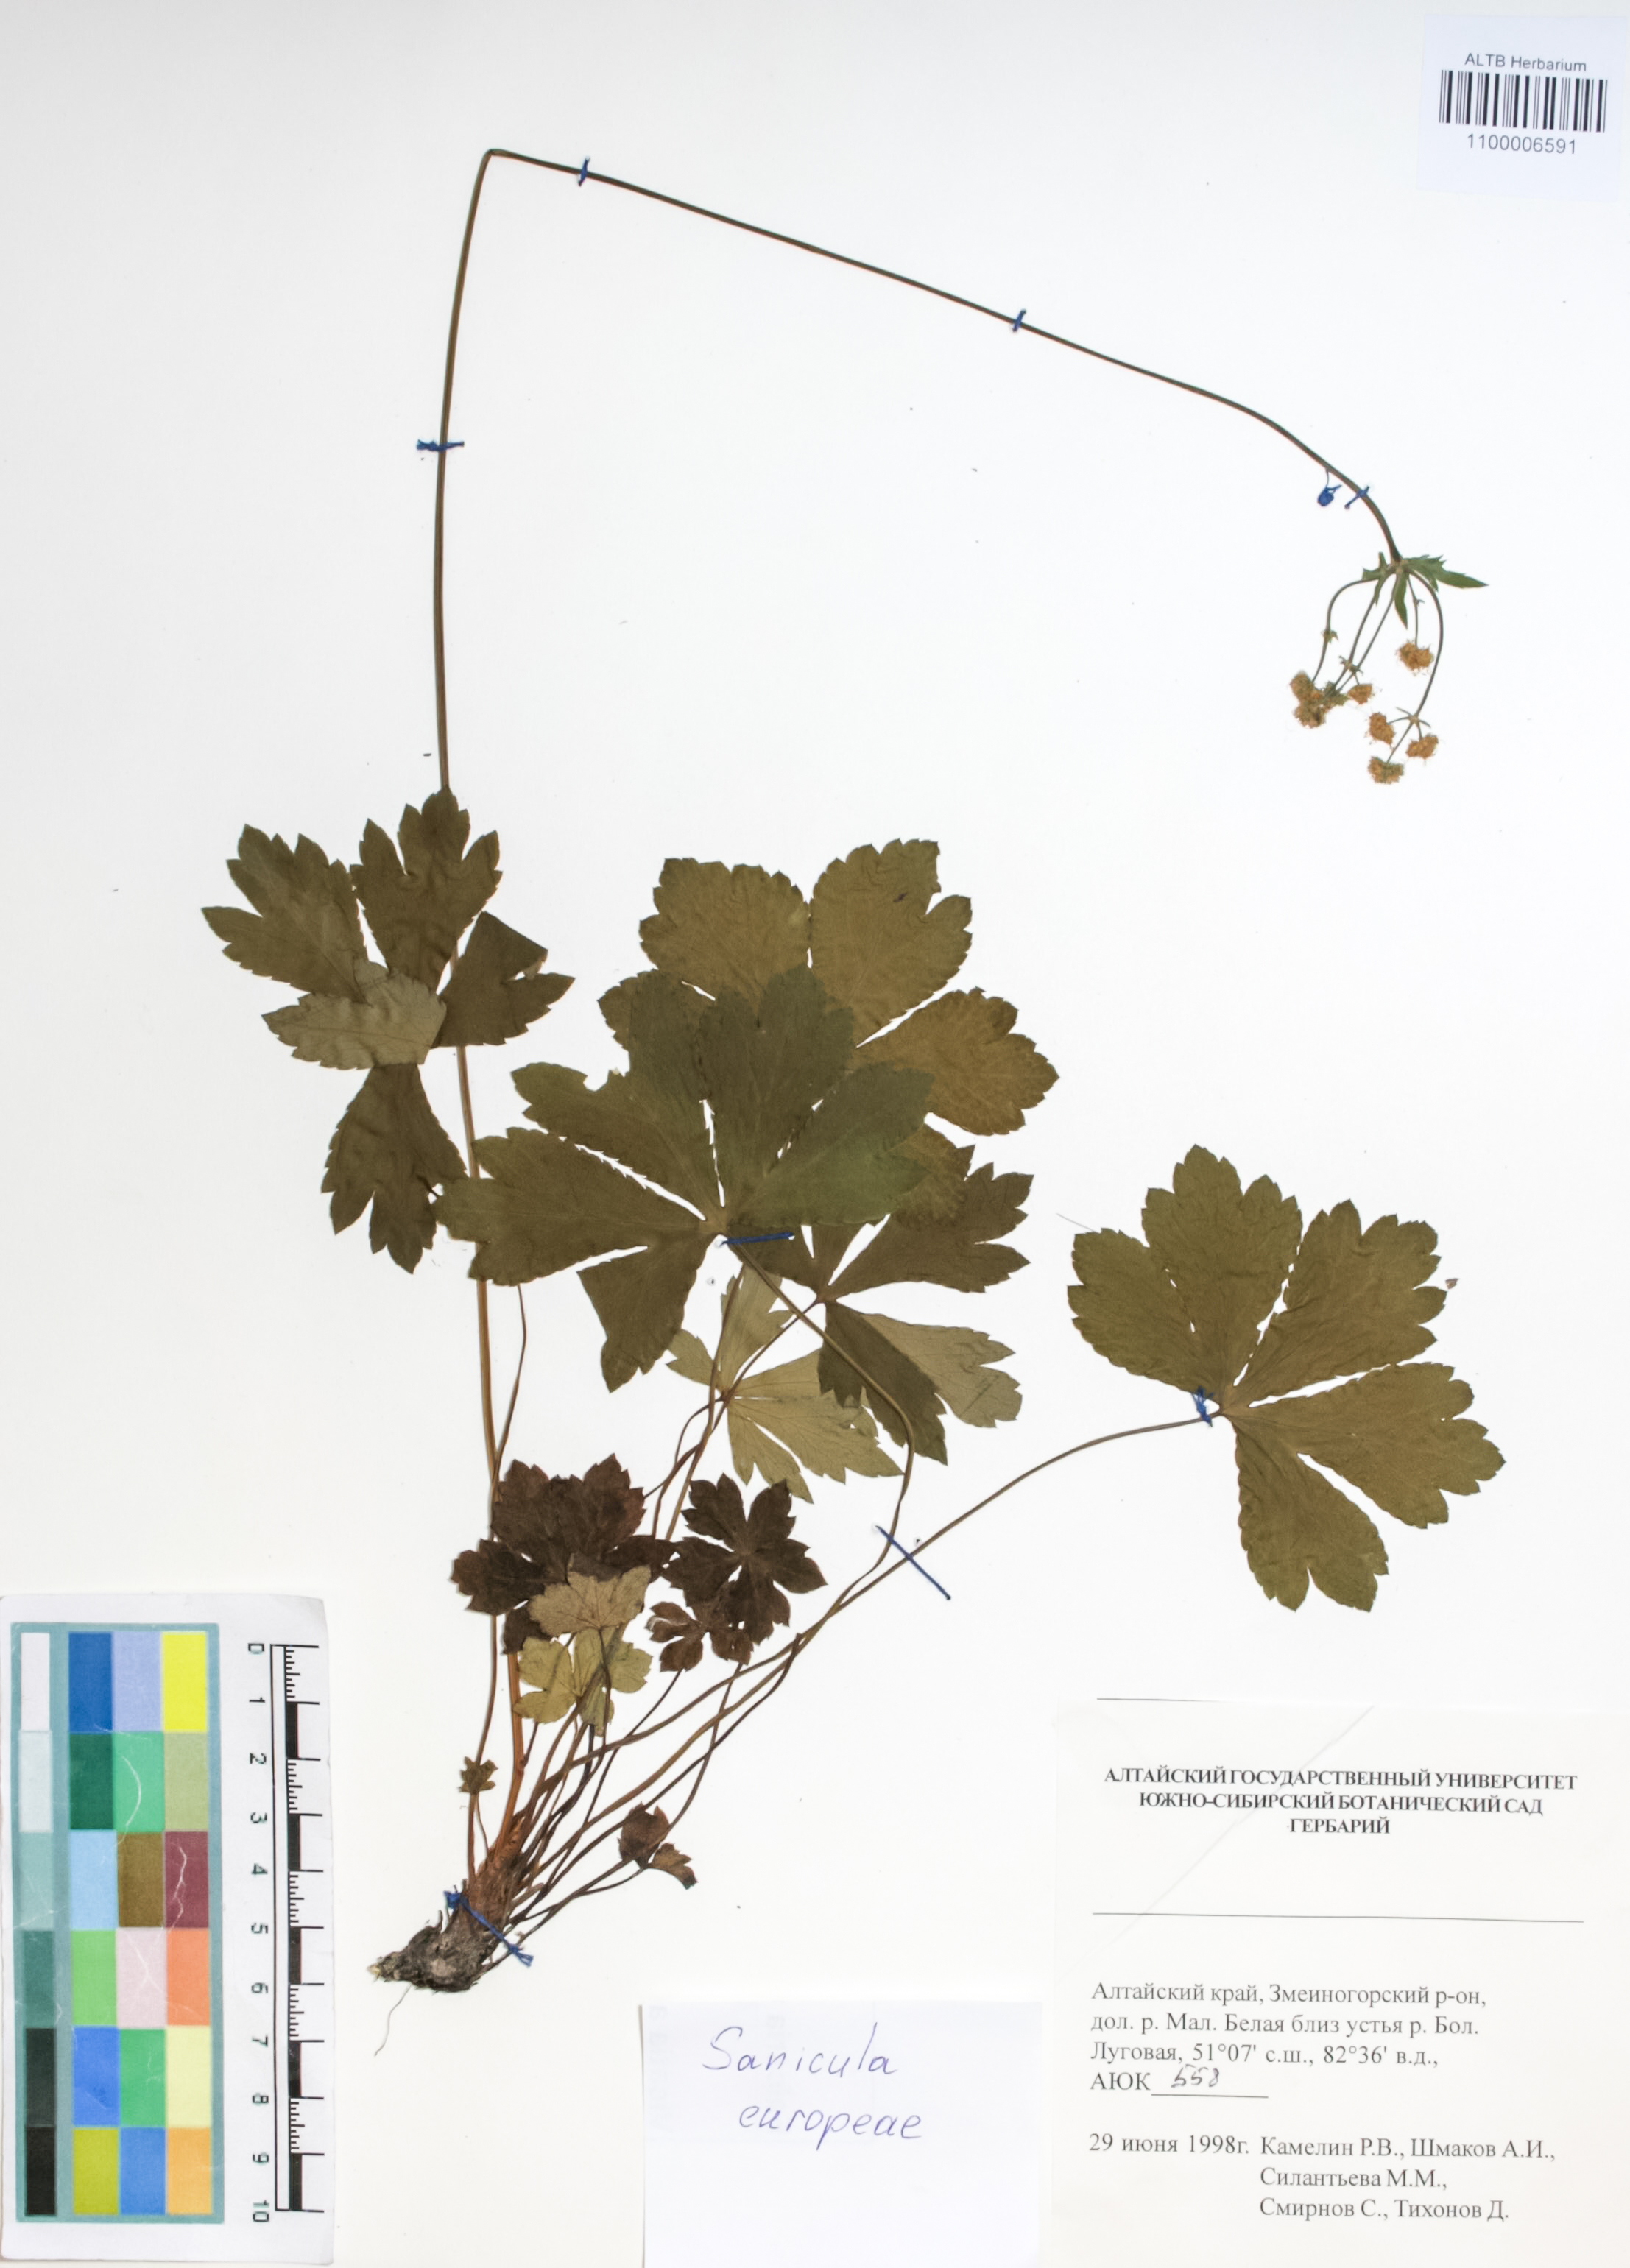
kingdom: Plantae
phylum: Tracheophyta
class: Magnoliopsida
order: Apiales
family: Apiaceae
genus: Sanicula
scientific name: Sanicula europaea
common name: Sanicle
